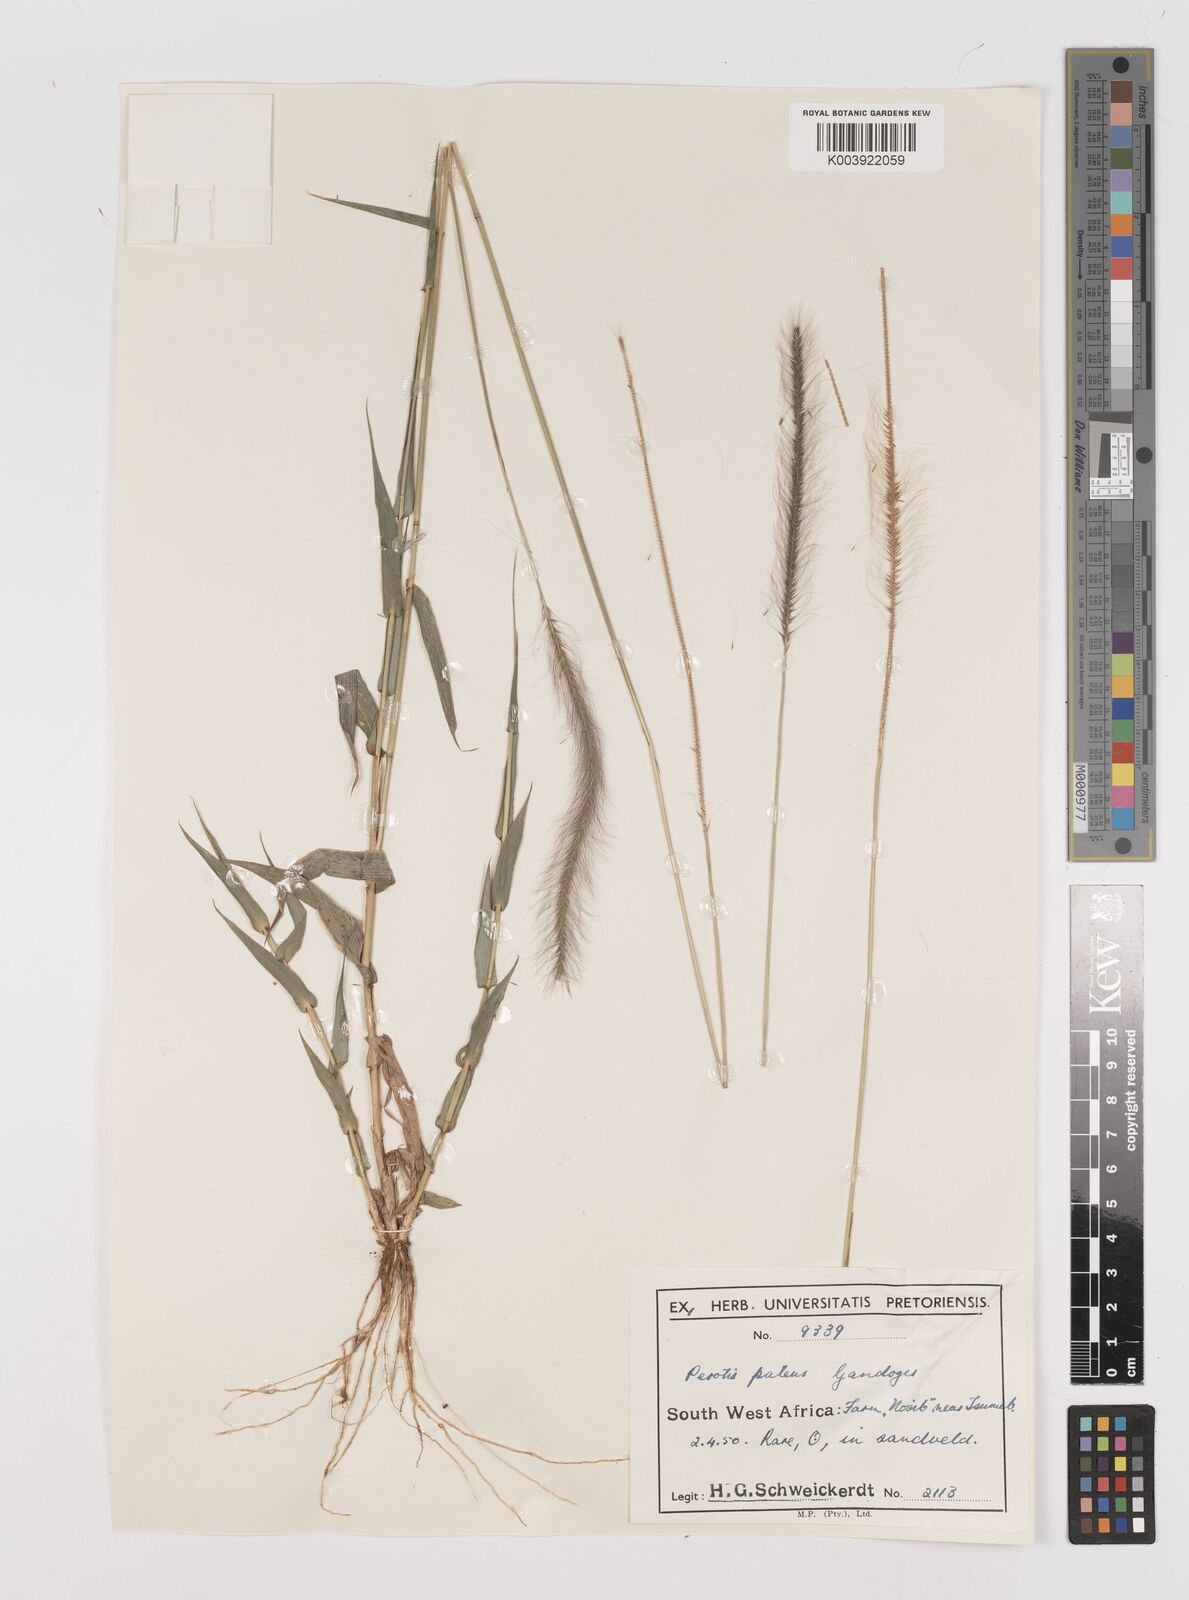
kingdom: Plantae
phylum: Tracheophyta
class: Liliopsida
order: Poales
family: Poaceae
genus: Perotis
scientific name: Perotis patens
